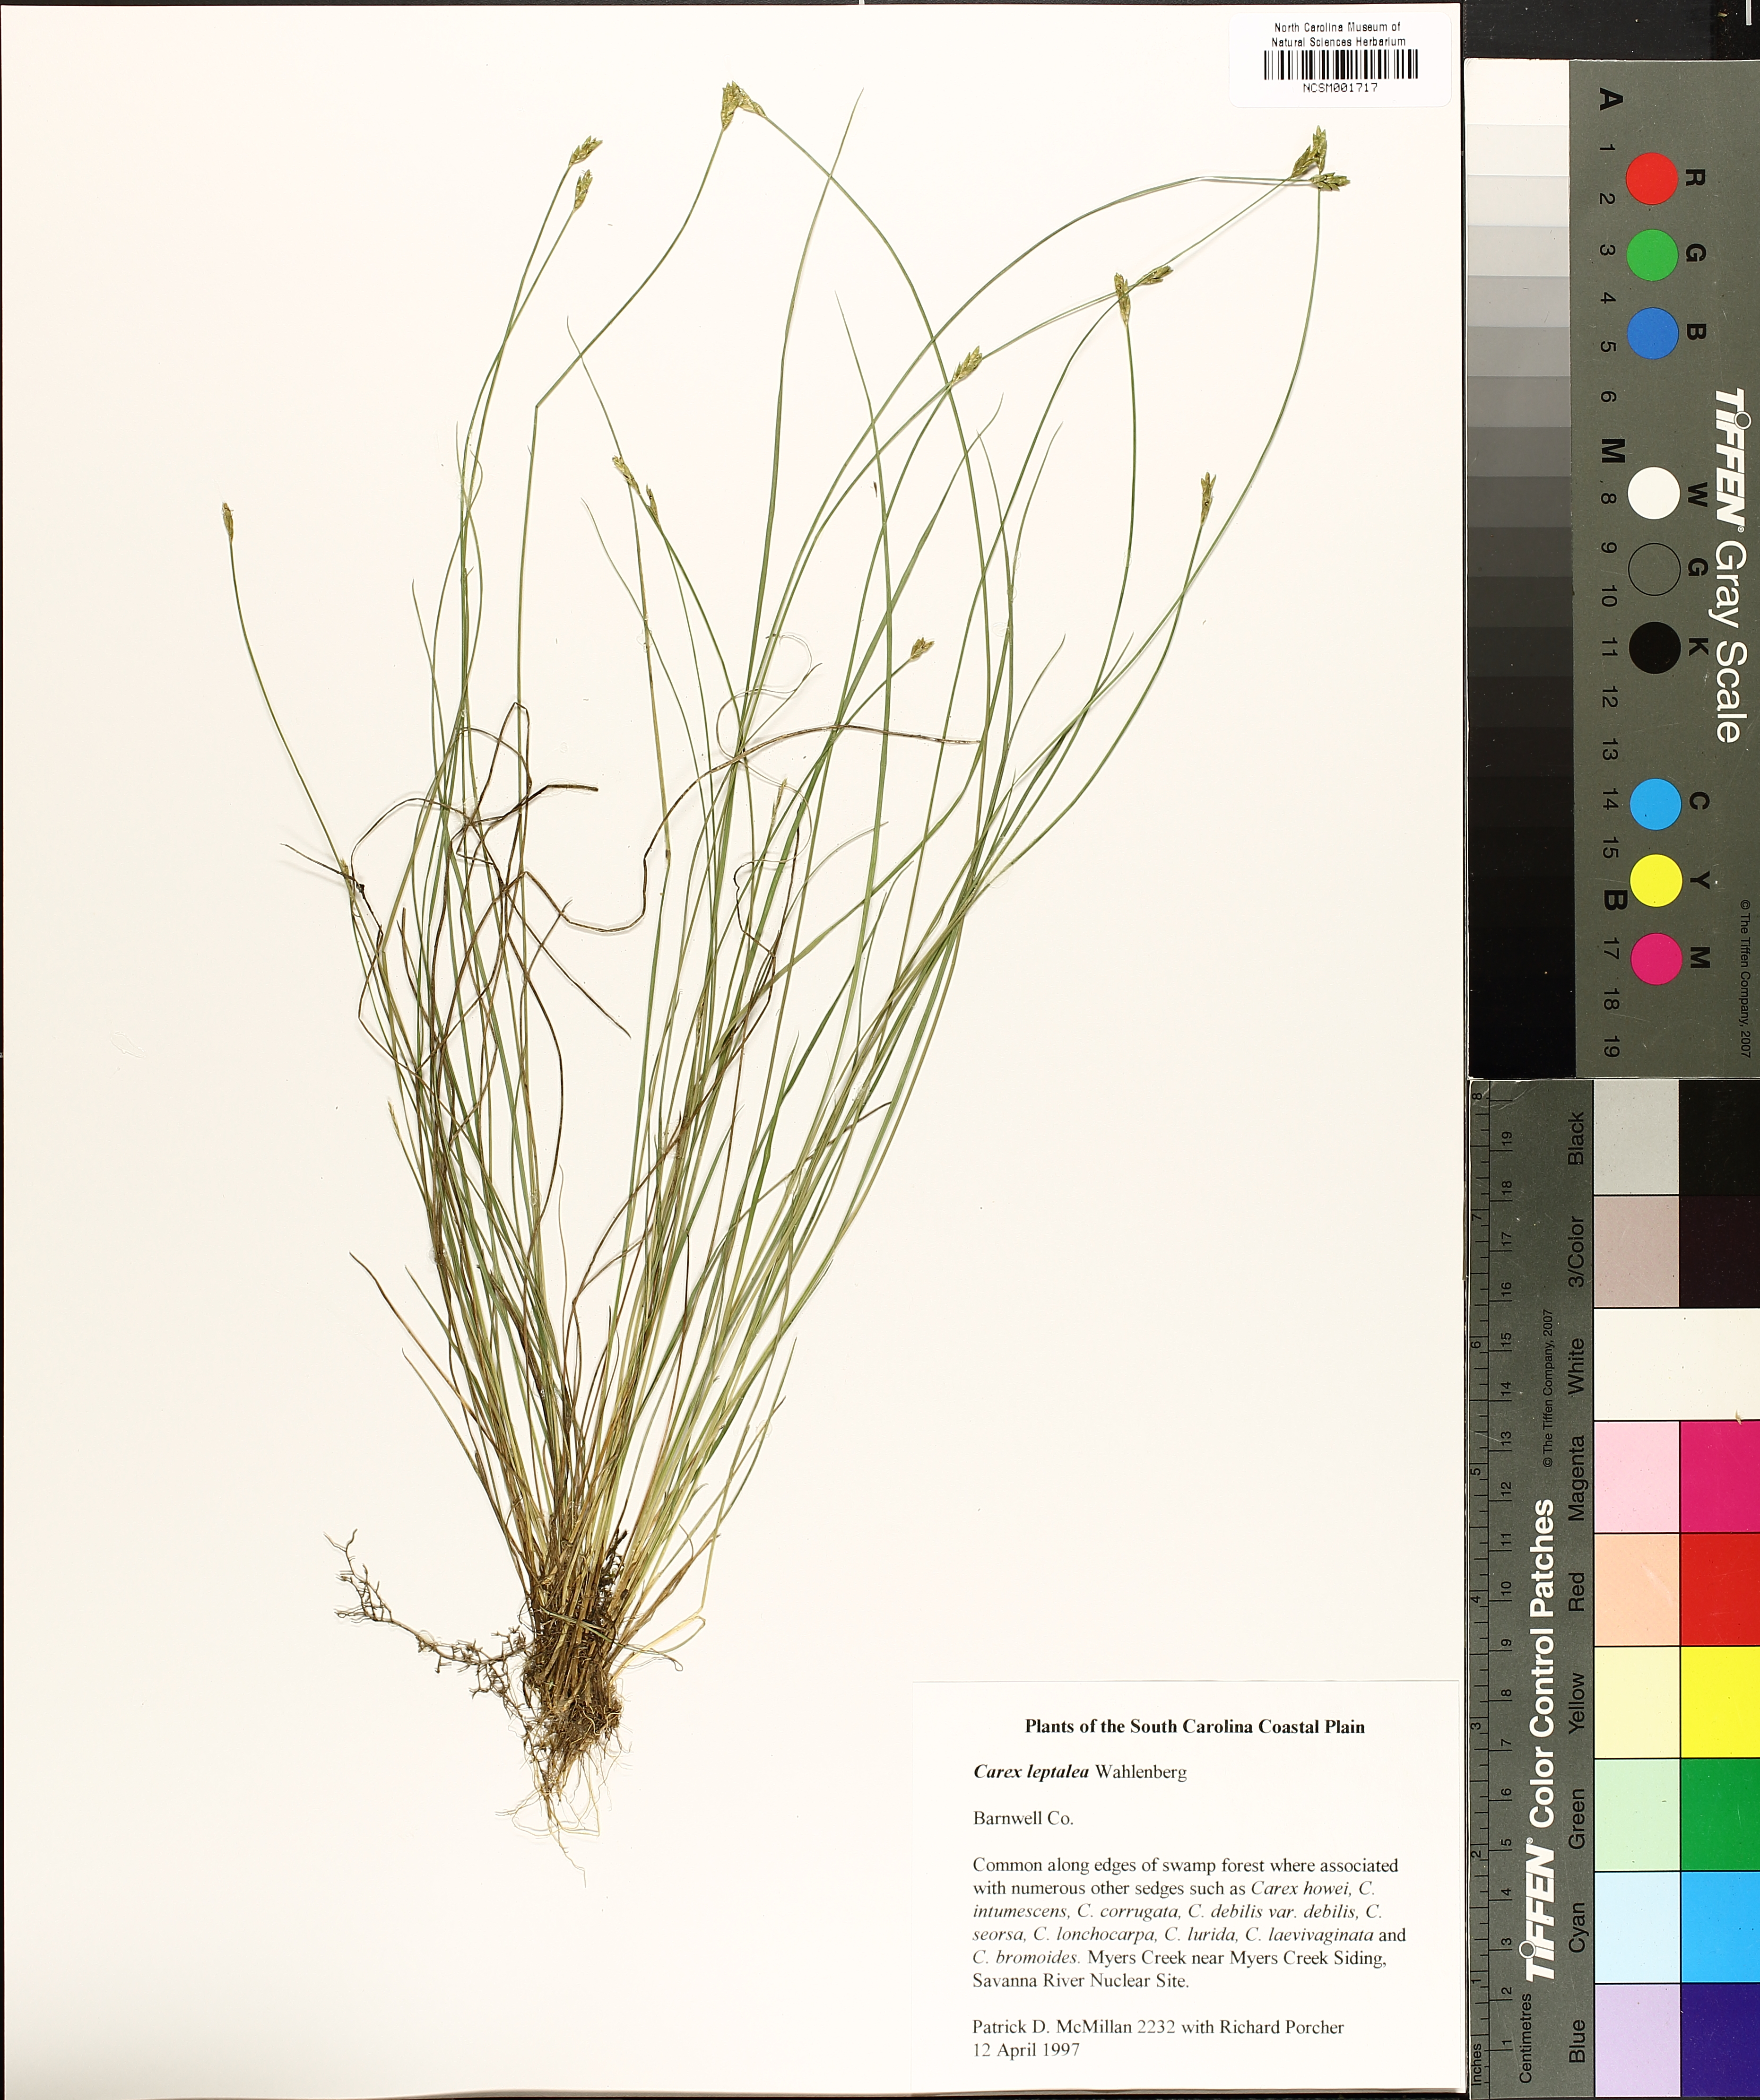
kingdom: Plantae
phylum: Tracheophyta
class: Liliopsida
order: Poales
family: Cyperaceae
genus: Carex
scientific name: Carex leptalea
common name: Bristly-stalked sedge
